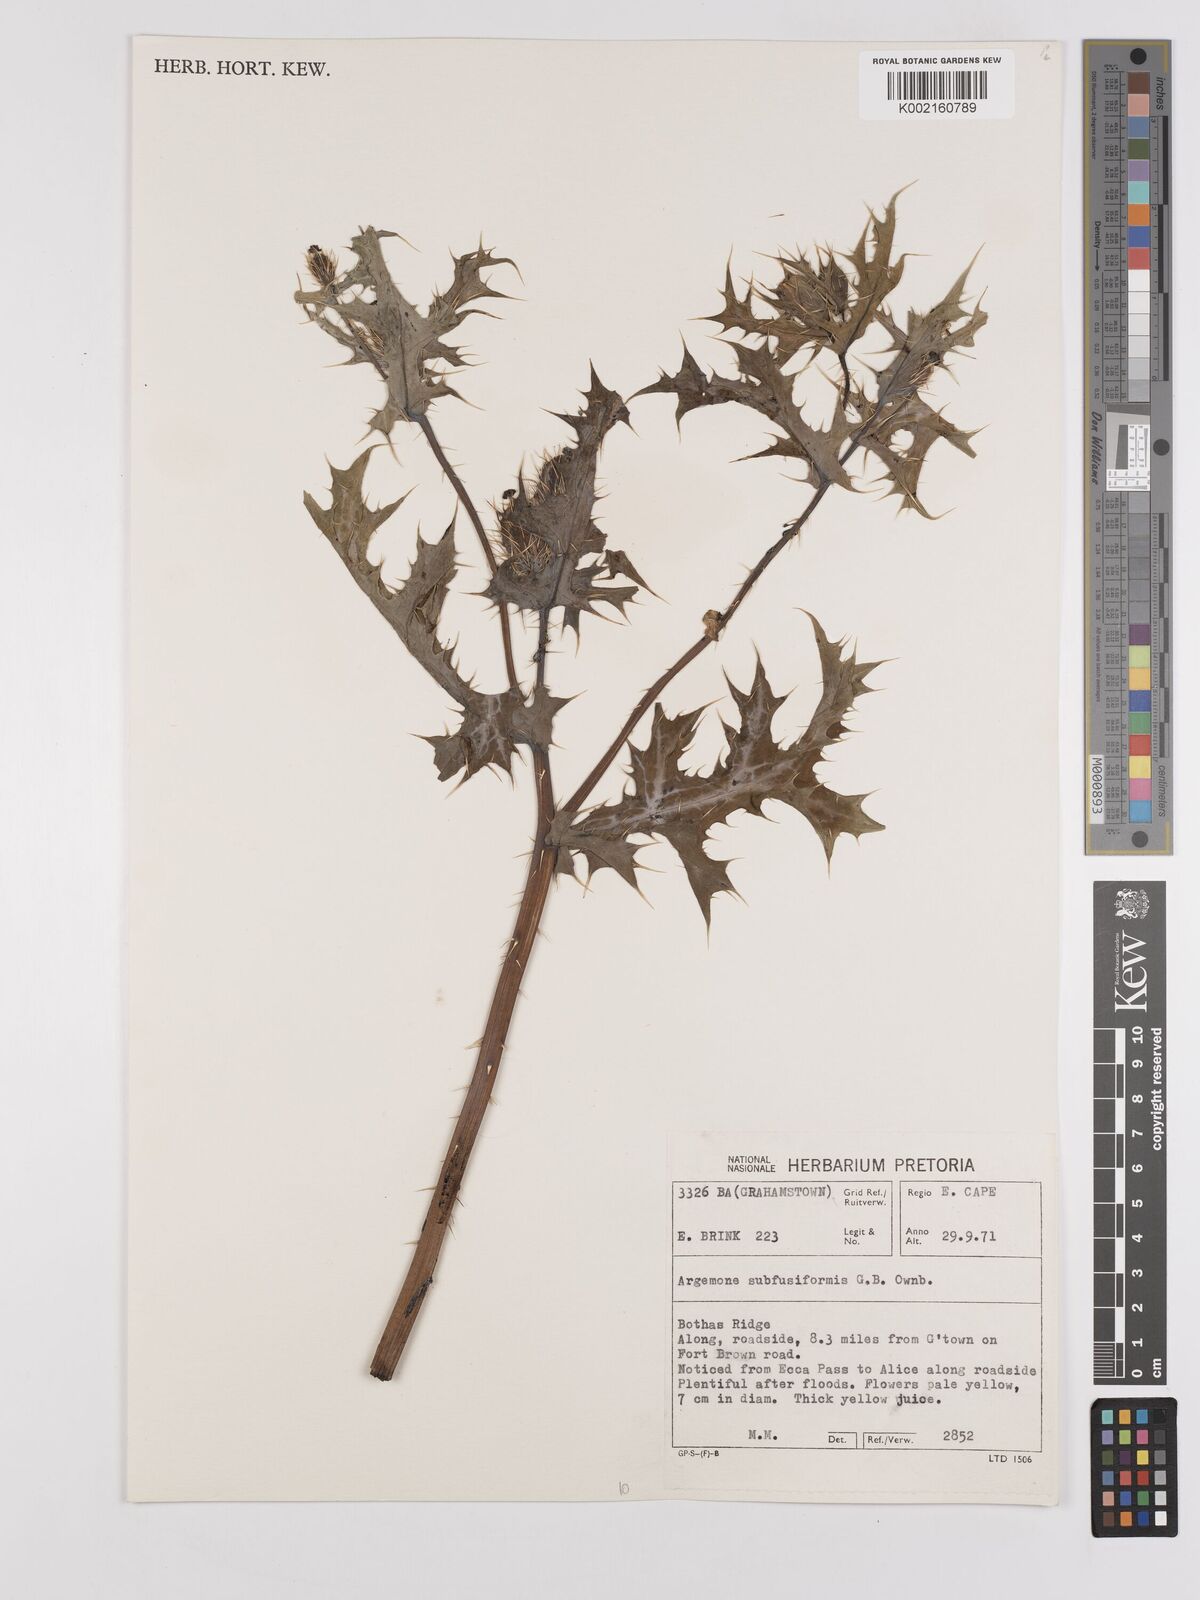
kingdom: Plantae
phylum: Tracheophyta
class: Magnoliopsida
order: Ranunculales
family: Papaveraceae
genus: Argemone
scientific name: Argemone subfusiformis
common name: American-poppy
